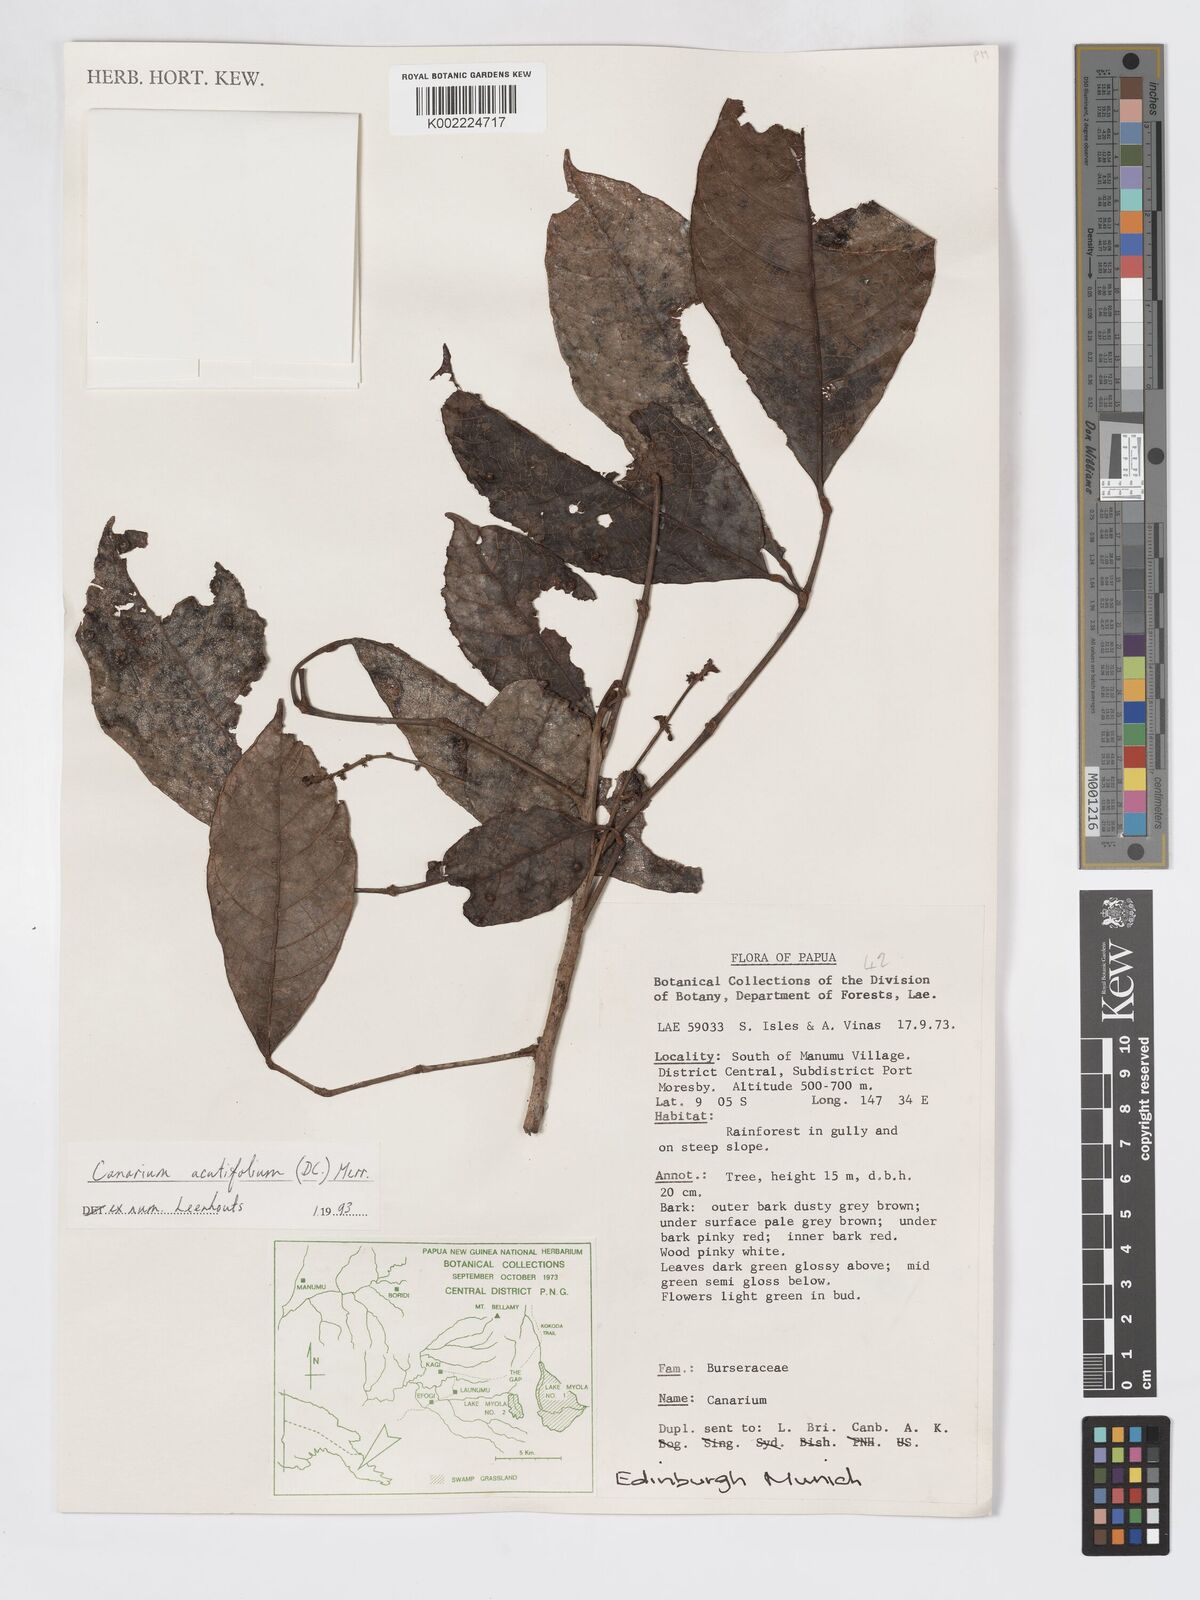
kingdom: Plantae
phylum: Tracheophyta
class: Magnoliopsida
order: Sapindales
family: Burseraceae
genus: Canarium
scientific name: Canarium acutifolium
